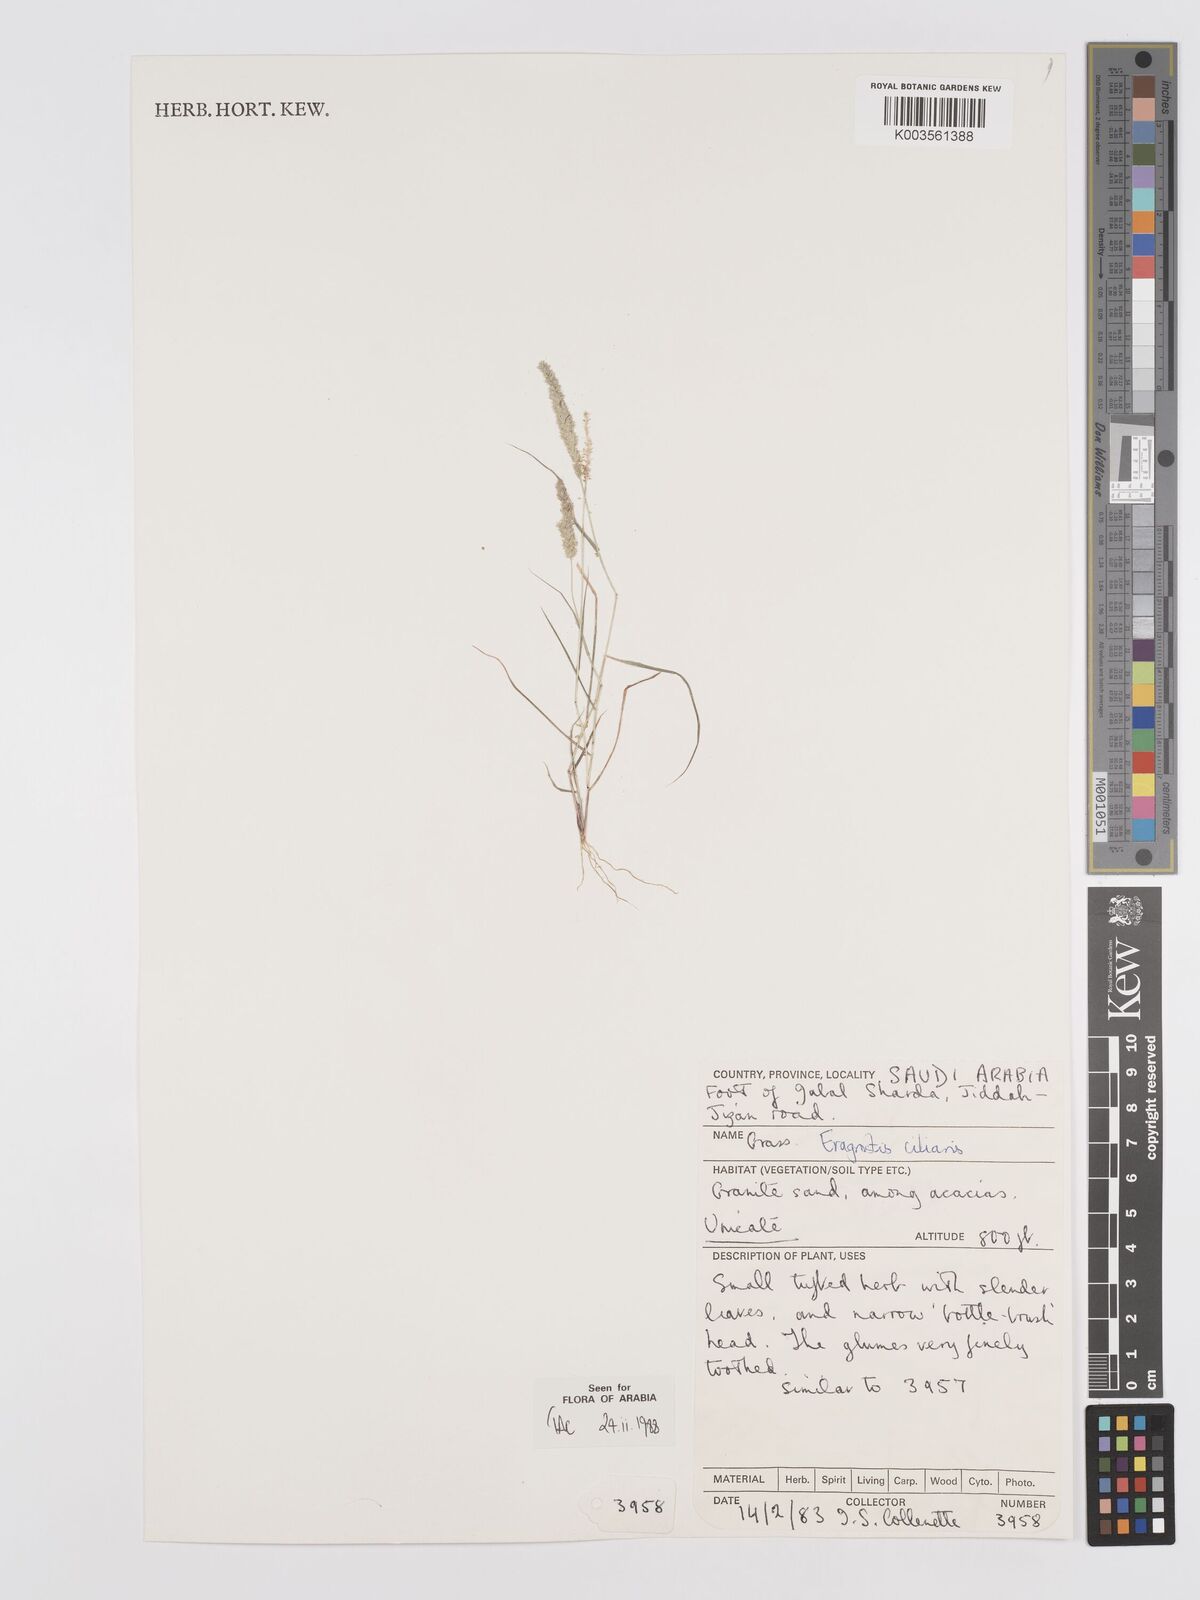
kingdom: Plantae
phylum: Tracheophyta
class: Liliopsida
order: Poales
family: Poaceae
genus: Eragrostis
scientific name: Eragrostis ciliaris
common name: Gophertail lovegrass
